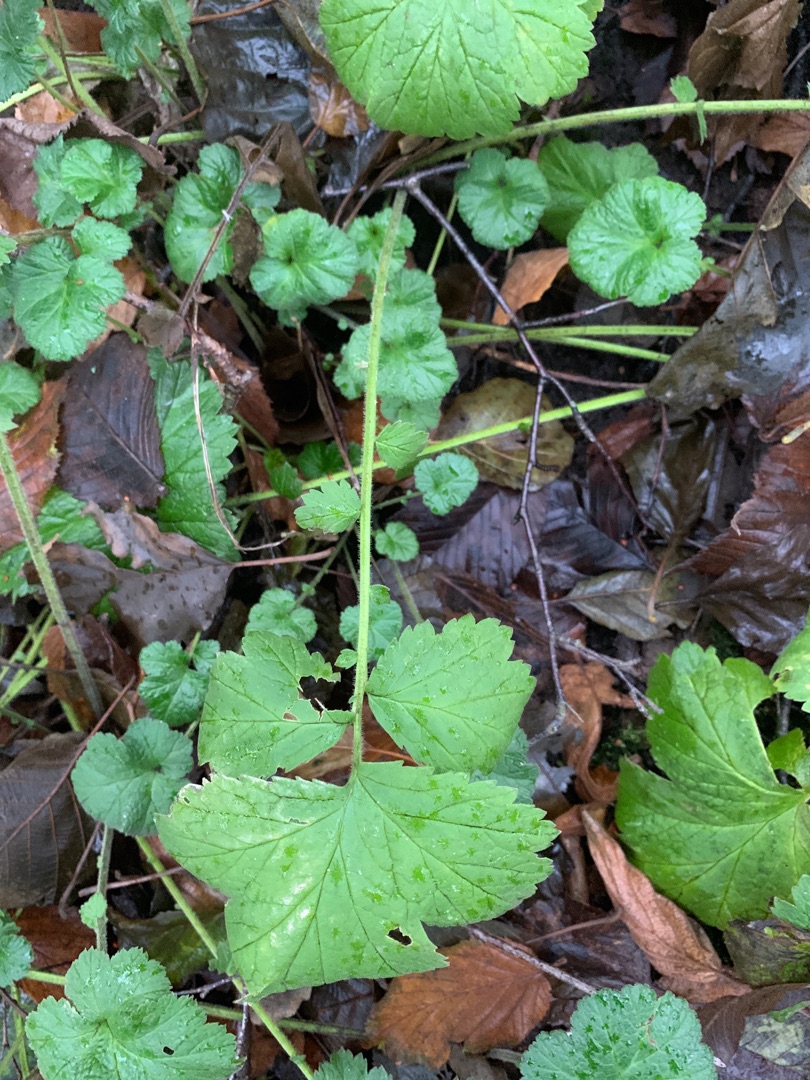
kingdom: Plantae
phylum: Tracheophyta
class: Magnoliopsida
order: Rosales
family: Rosaceae
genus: Geum
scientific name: Geum urbanum
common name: Feber-nellikerod
